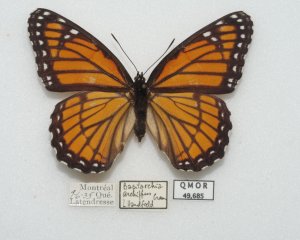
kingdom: Animalia
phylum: Arthropoda
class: Insecta
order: Lepidoptera
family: Nymphalidae
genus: Limenitis
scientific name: Limenitis archippus
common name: Viceroy
